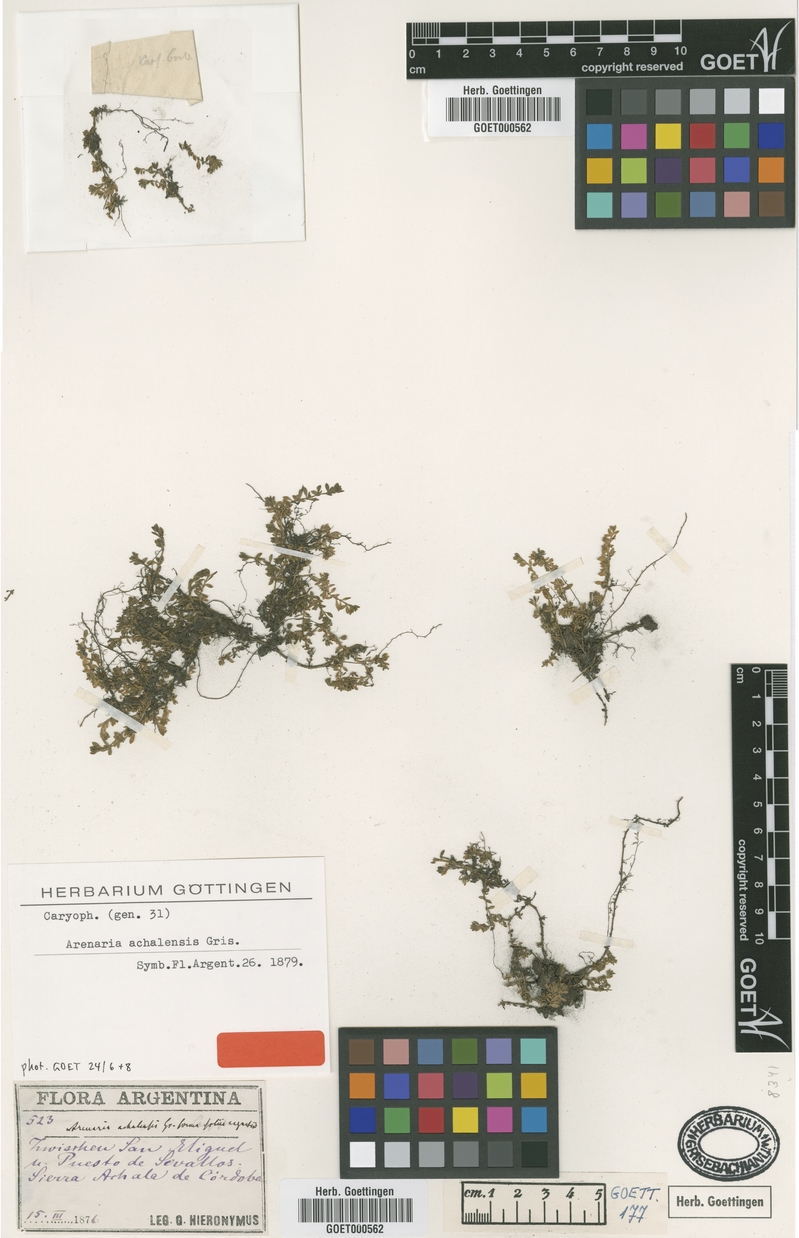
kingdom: Plantae
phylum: Tracheophyta
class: Magnoliopsida
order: Caryophyllales
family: Caryophyllaceae
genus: Arenaria
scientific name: Arenaria achalensis
